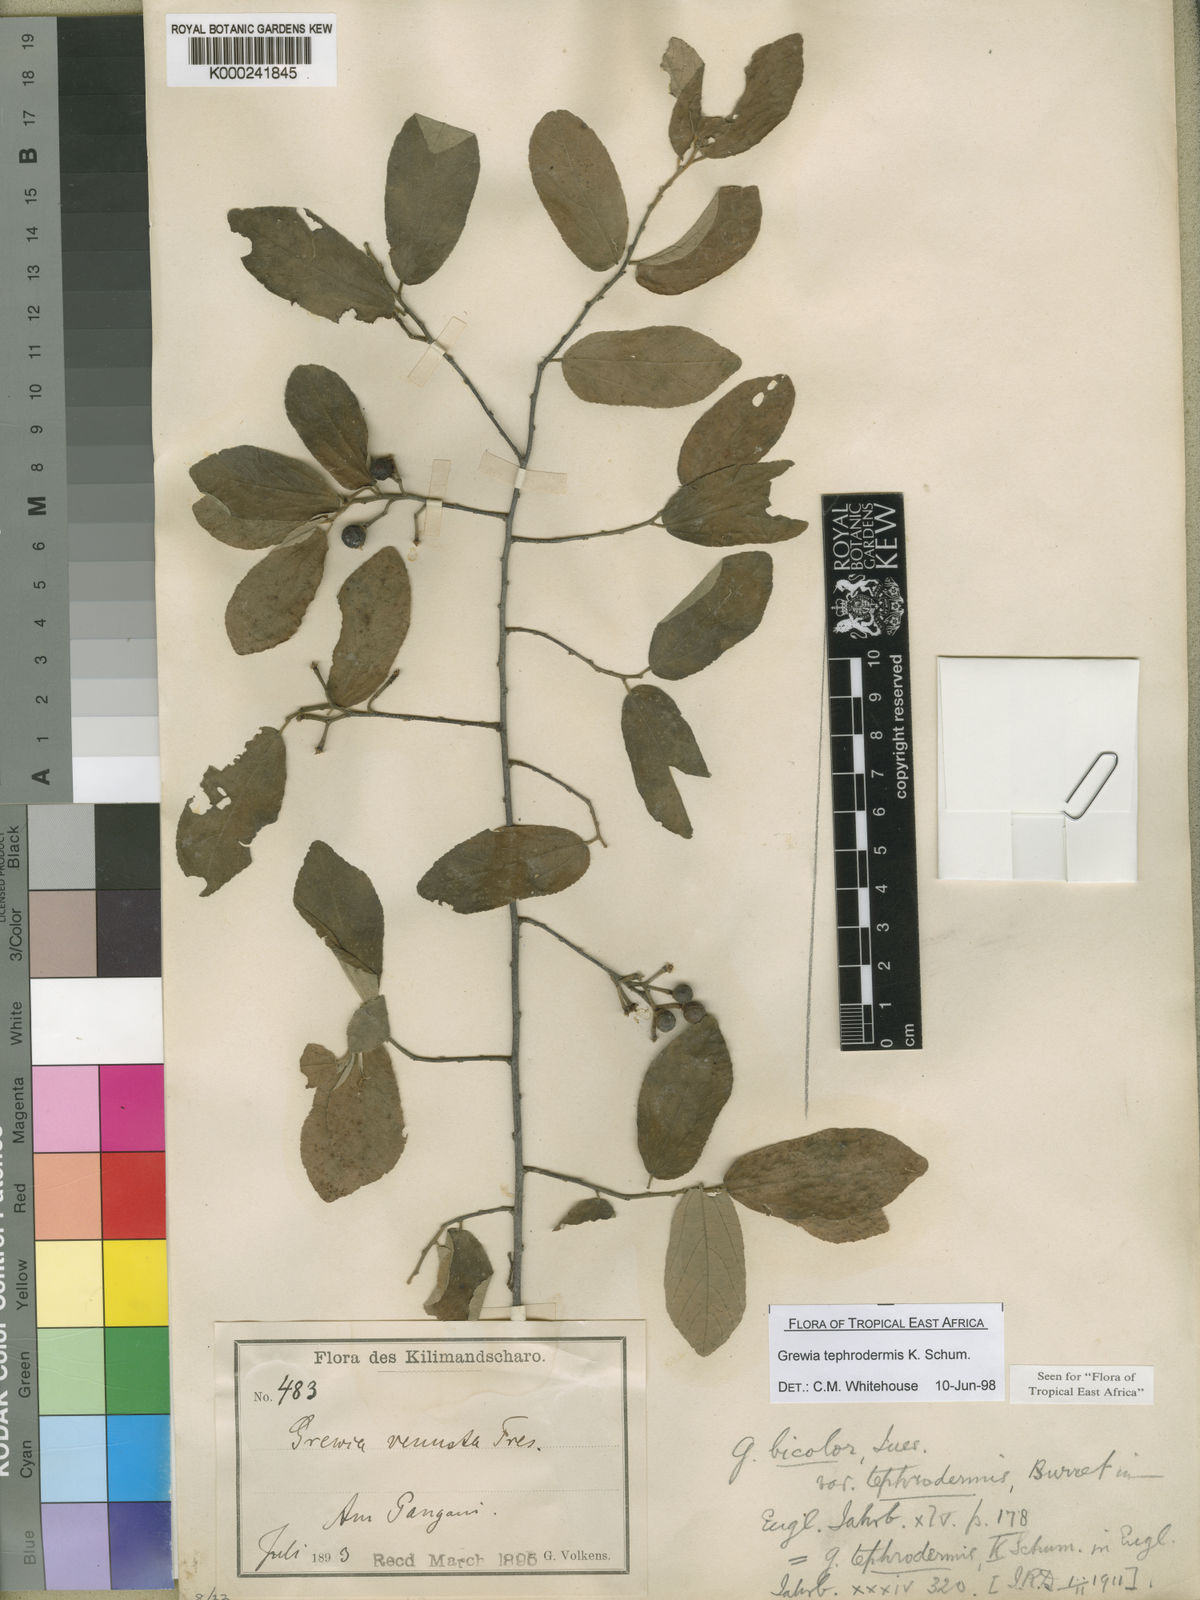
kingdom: Plantae
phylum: Tracheophyta
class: Magnoliopsida
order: Malvales
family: Malvaceae
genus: Grewia
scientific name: Grewia tephrodermis
